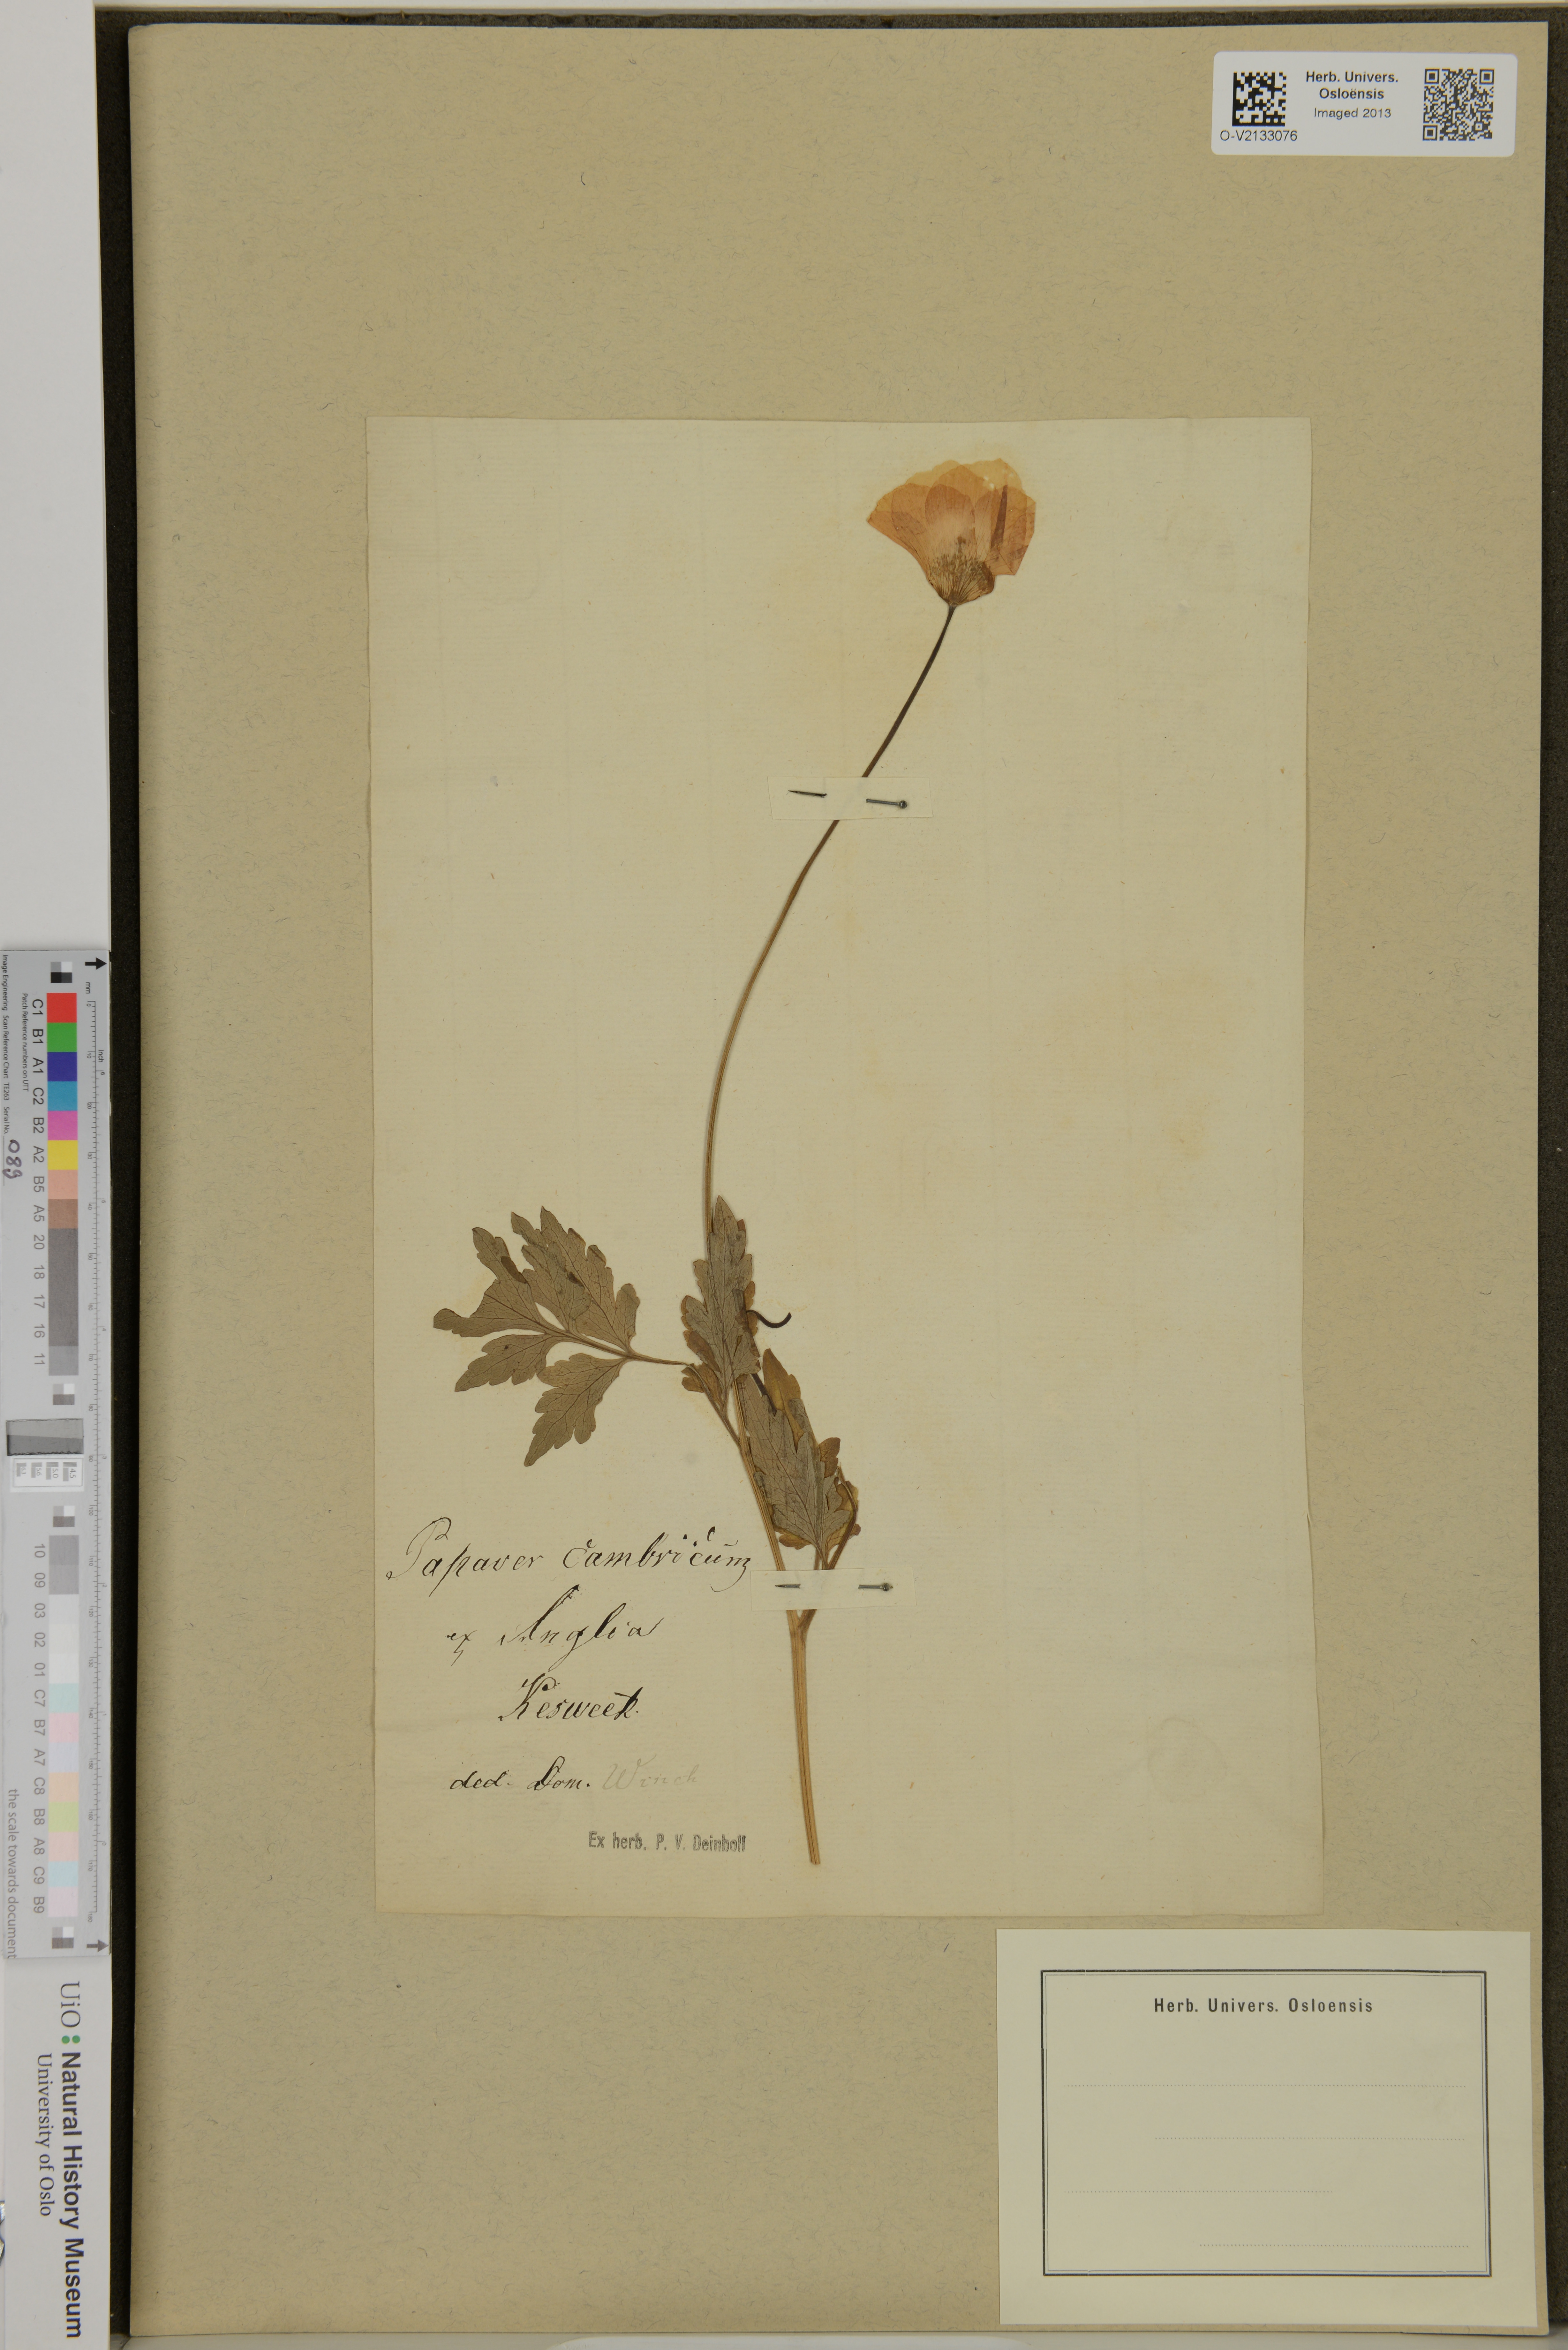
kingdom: Plantae
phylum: Tracheophyta
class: Magnoliopsida
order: Ranunculales
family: Papaveraceae
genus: Papaver
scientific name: Papaver cambricum
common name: Poppy
